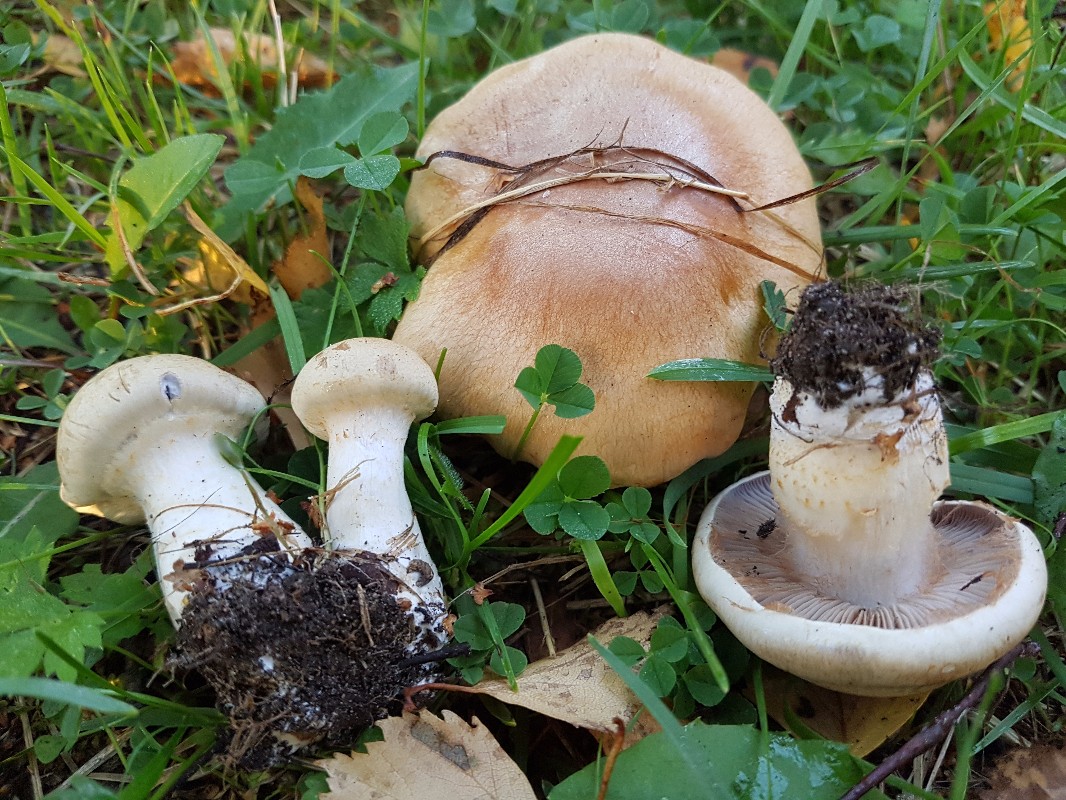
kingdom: Fungi
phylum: Basidiomycota
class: Agaricomycetes
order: Agaricales
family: Cortinariaceae
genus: Cortinarius
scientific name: Cortinarius anomalus
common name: Variable webcap
